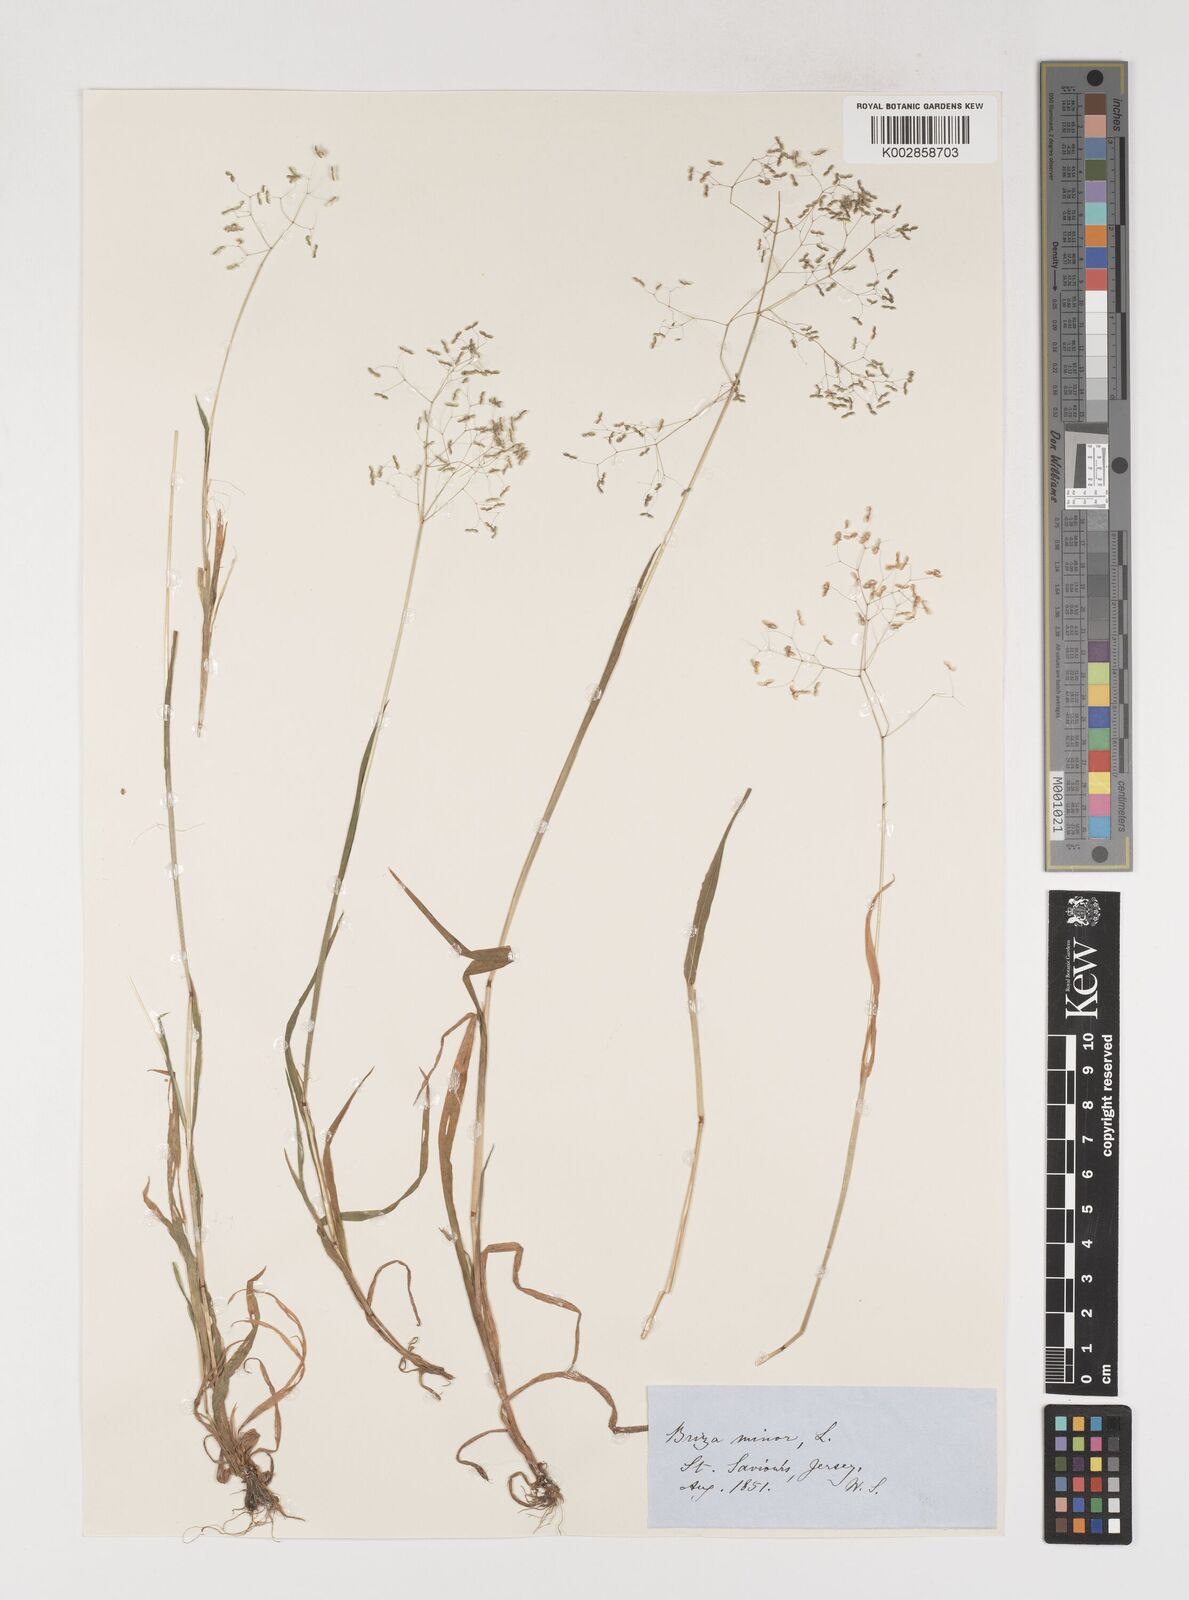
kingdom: Plantae
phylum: Tracheophyta
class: Liliopsida
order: Poales
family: Poaceae
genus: Briza
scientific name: Briza minor
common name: Lesser quaking-grass
